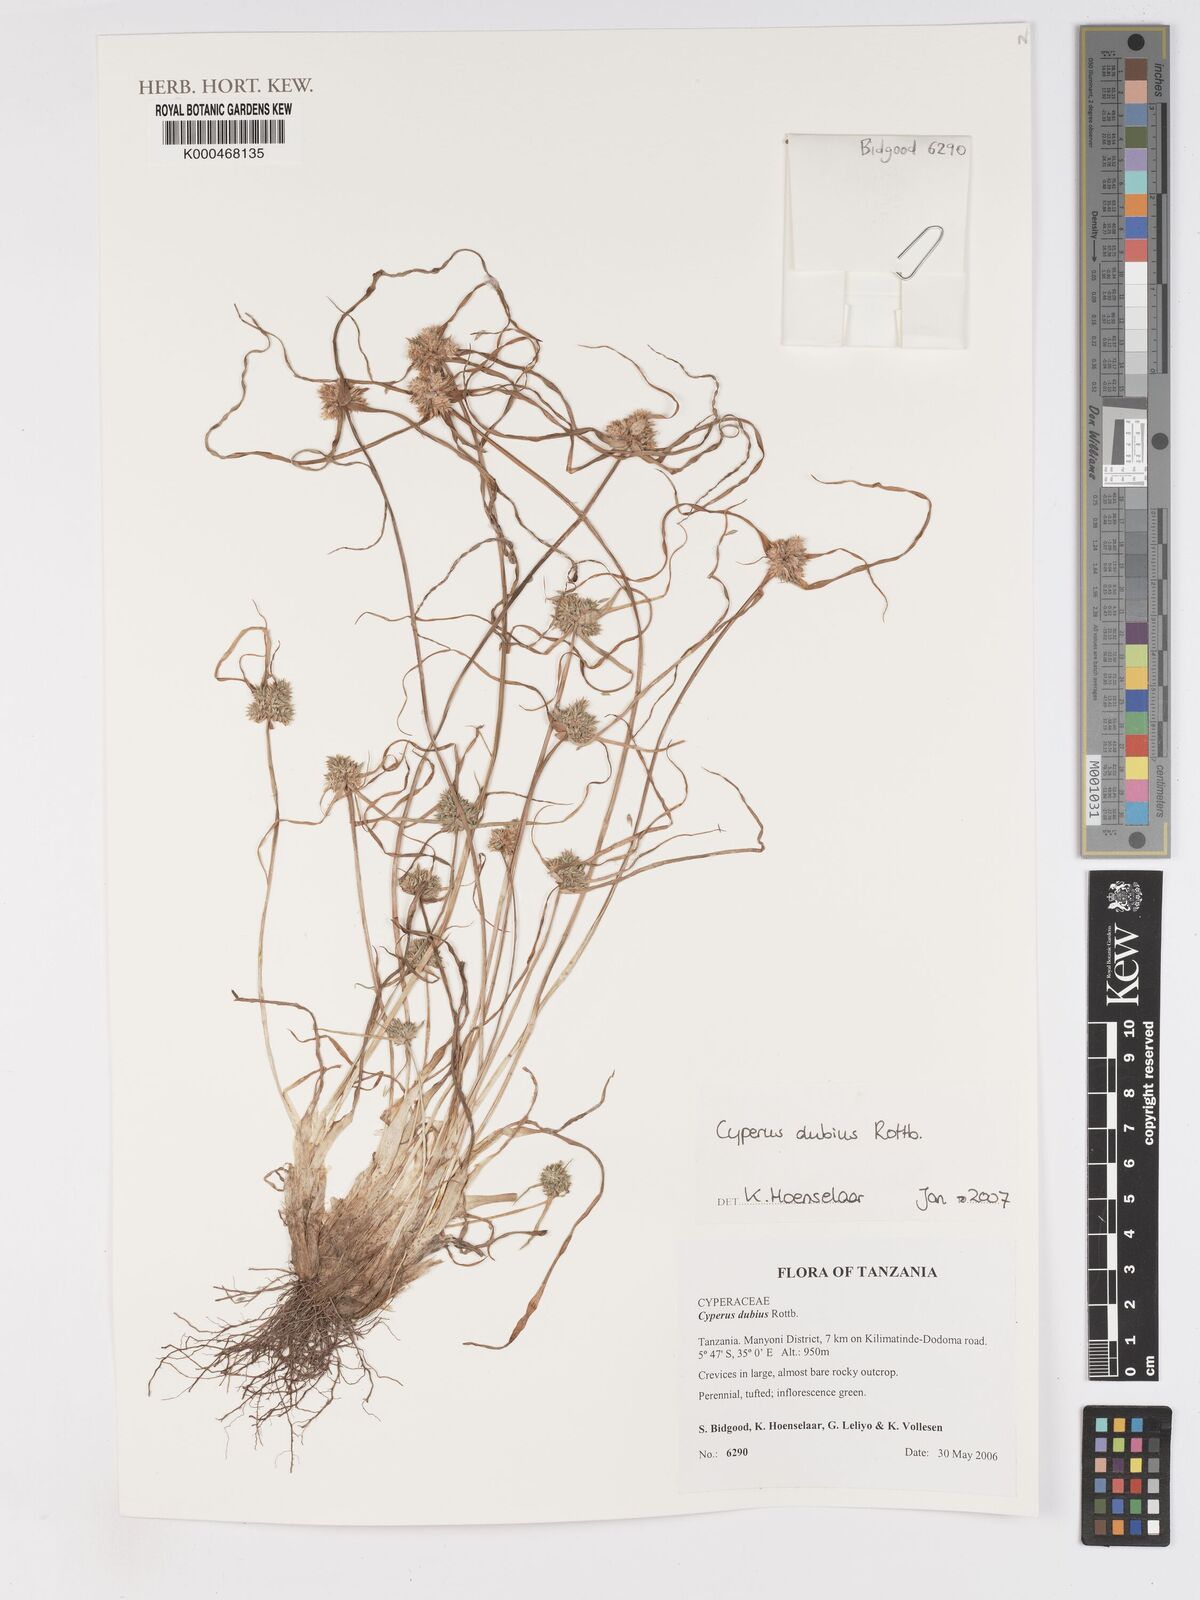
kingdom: Plantae
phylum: Tracheophyta
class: Liliopsida
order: Poales
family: Cyperaceae
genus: Cyperus
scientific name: Cyperus dubius
